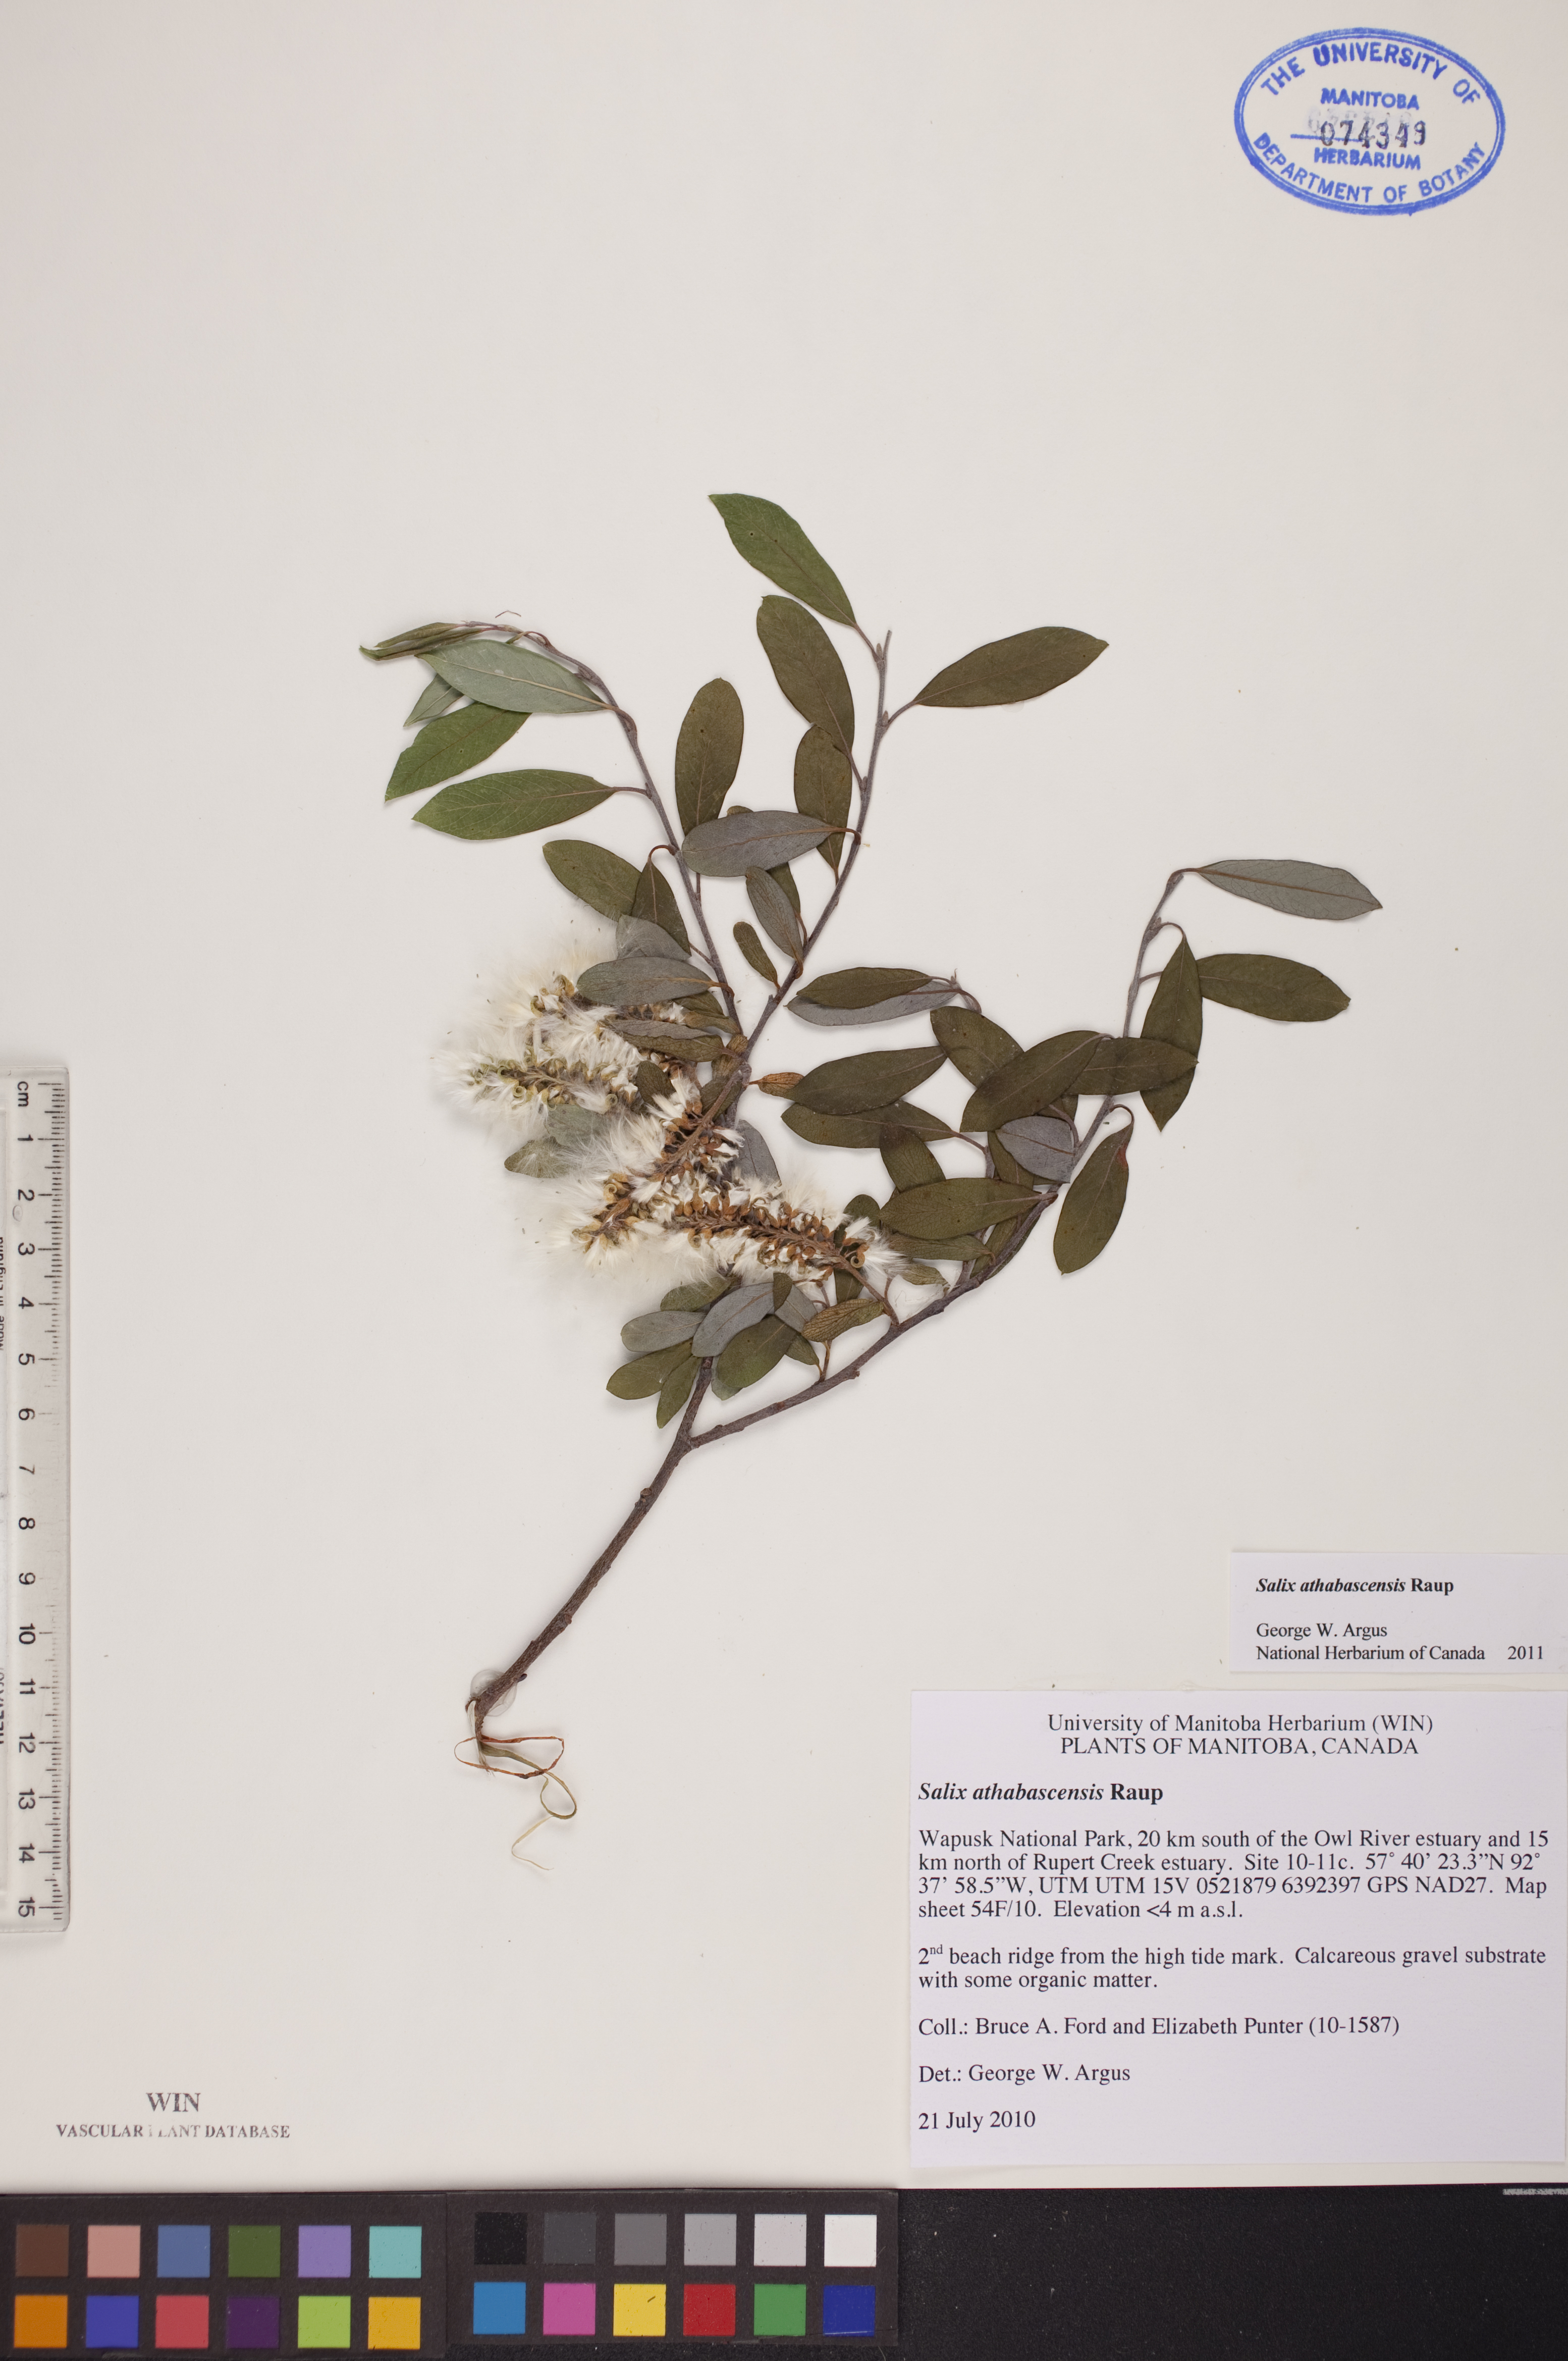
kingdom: Plantae
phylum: Tracheophyta
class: Magnoliopsida
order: Malpighiales
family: Salicaceae
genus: Salix
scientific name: Salix athabascensis
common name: Athabasca willow
